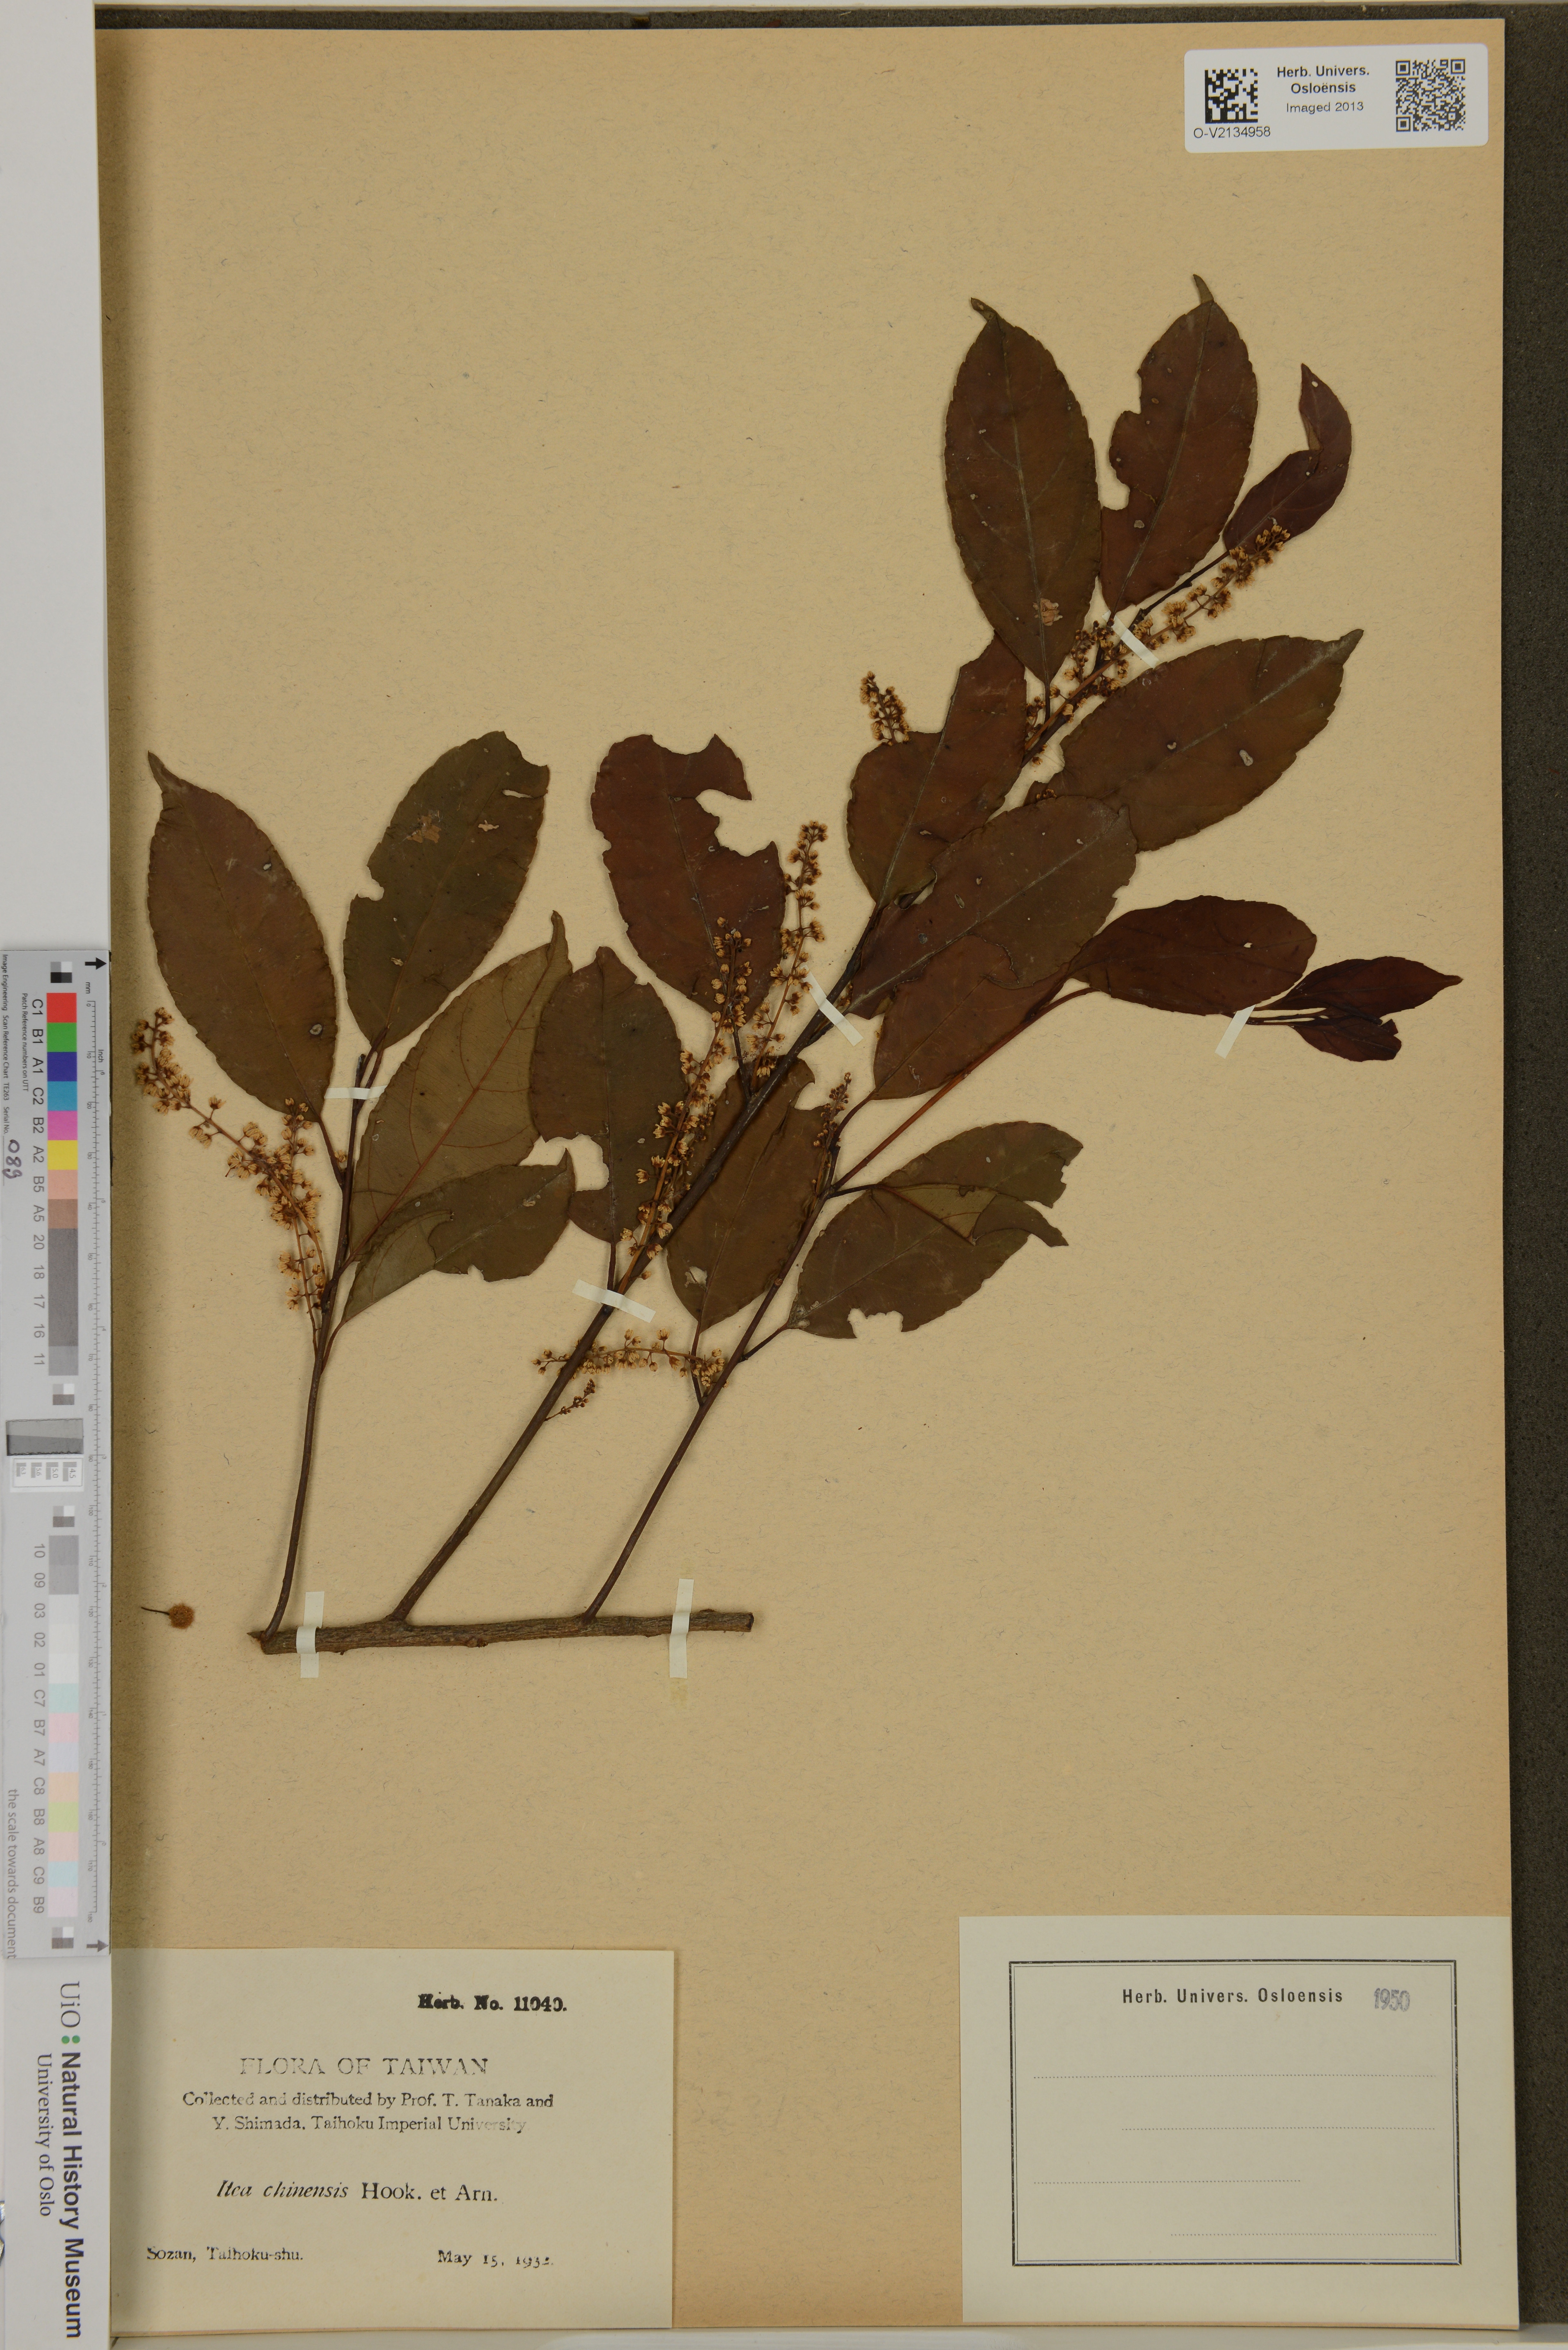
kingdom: Plantae
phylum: Tracheophyta
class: Magnoliopsida
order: Saxifragales
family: Iteaceae
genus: Itea
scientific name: Itea chinensis
